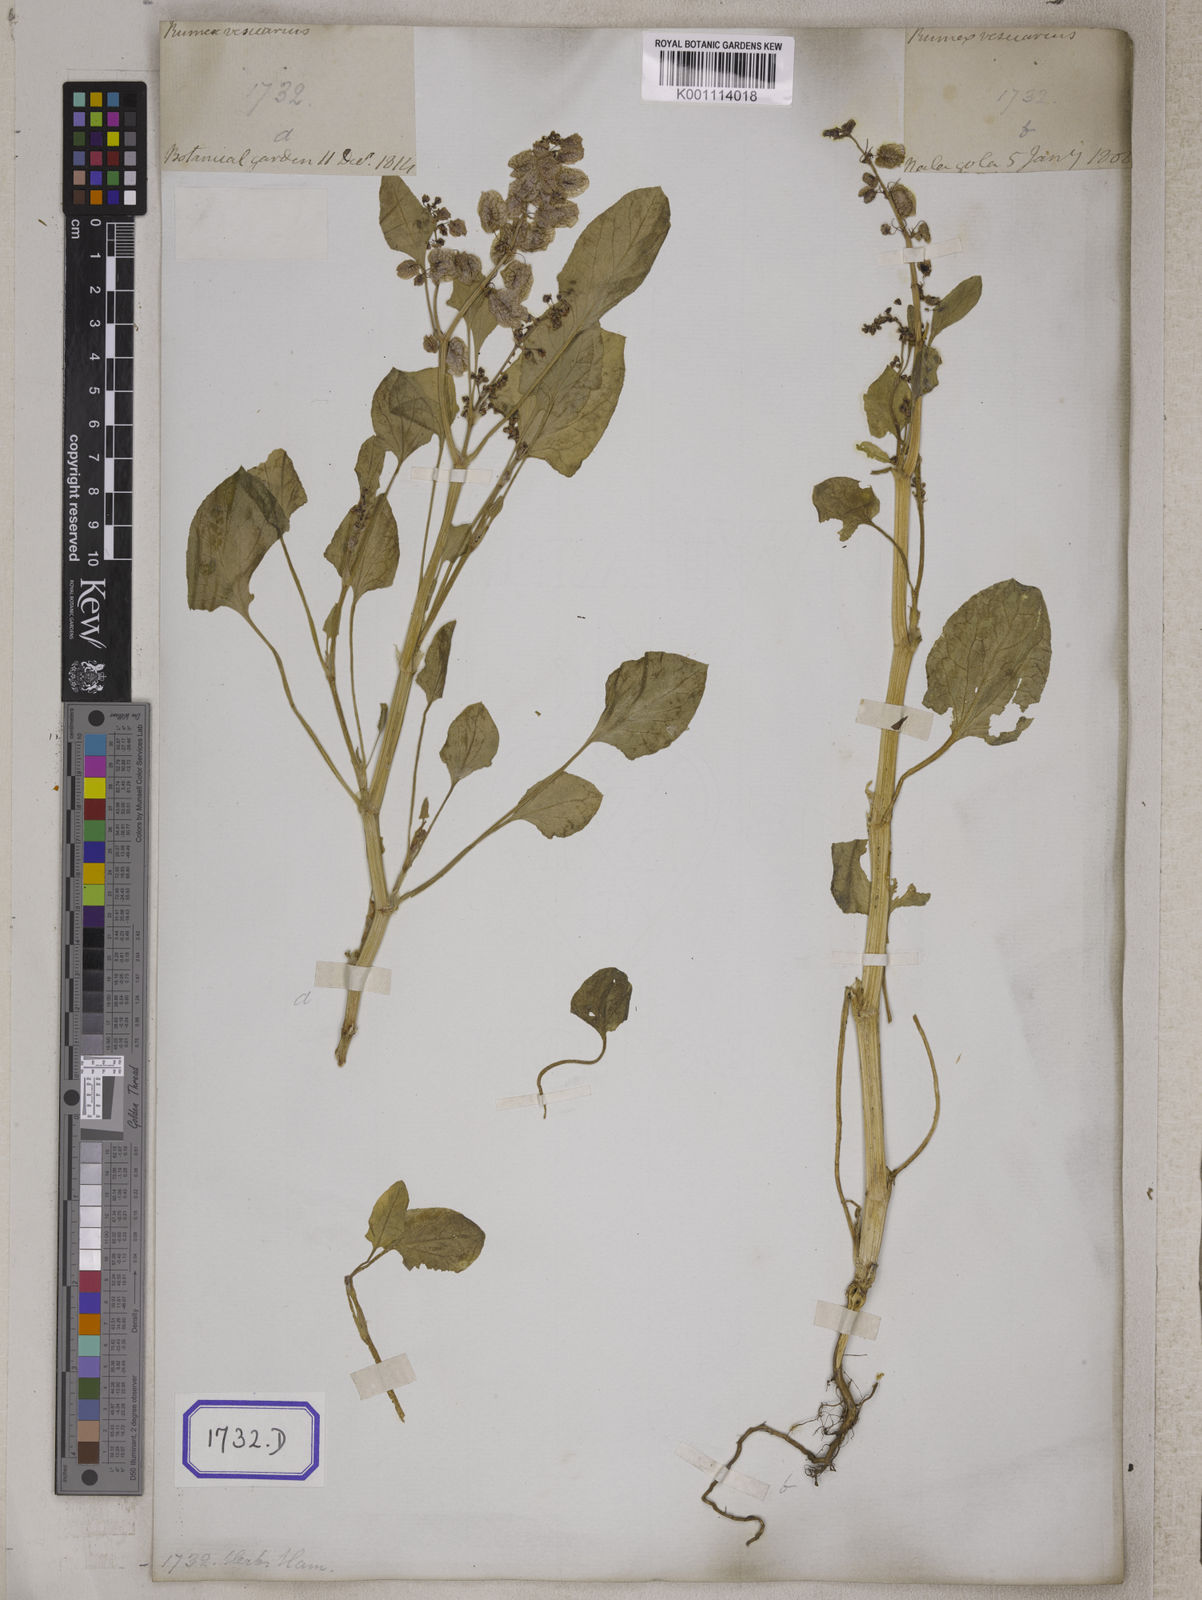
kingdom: Plantae
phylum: Tracheophyta
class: Magnoliopsida
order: Caryophyllales
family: Polygonaceae
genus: Rumex
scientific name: Rumex
